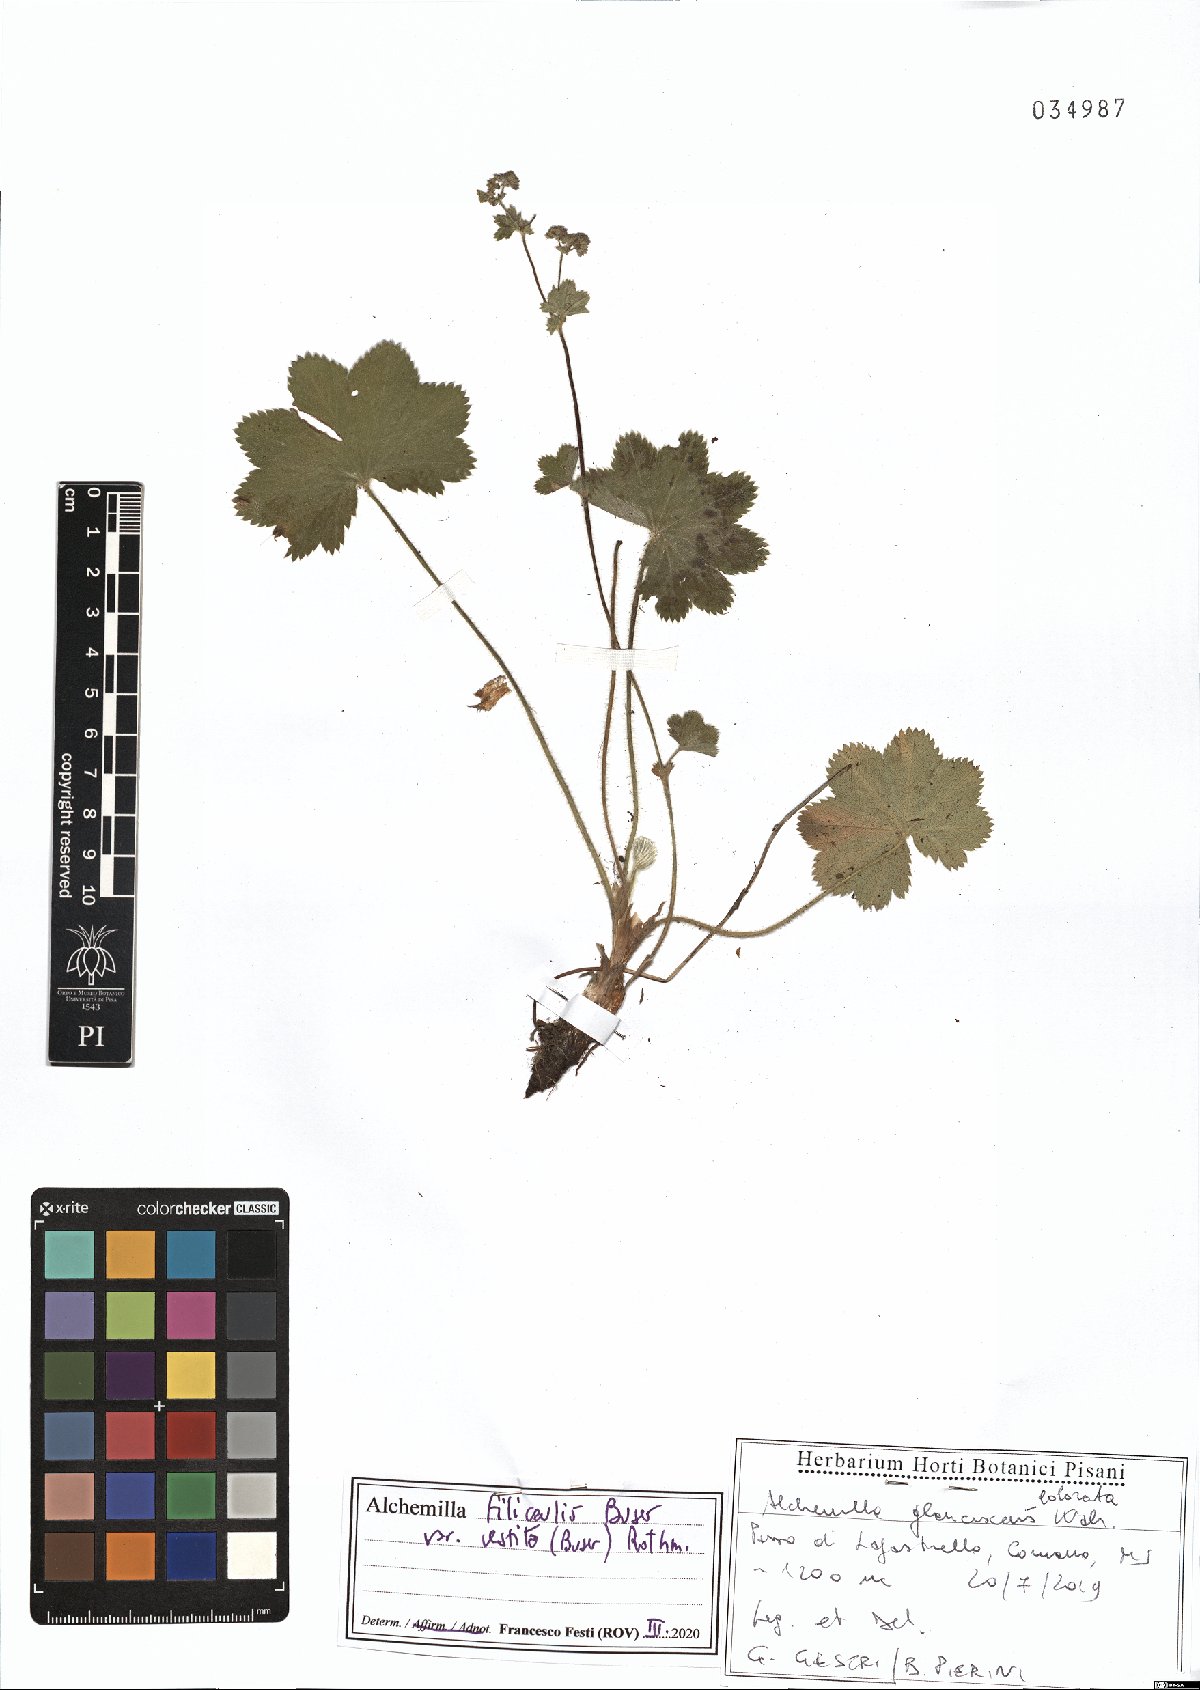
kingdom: Plantae
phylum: Tracheophyta
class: Magnoliopsida
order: Rosales
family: Rosaceae
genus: Alchemilla
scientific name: Alchemilla filicaulis
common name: Hairy lady's-mantle
